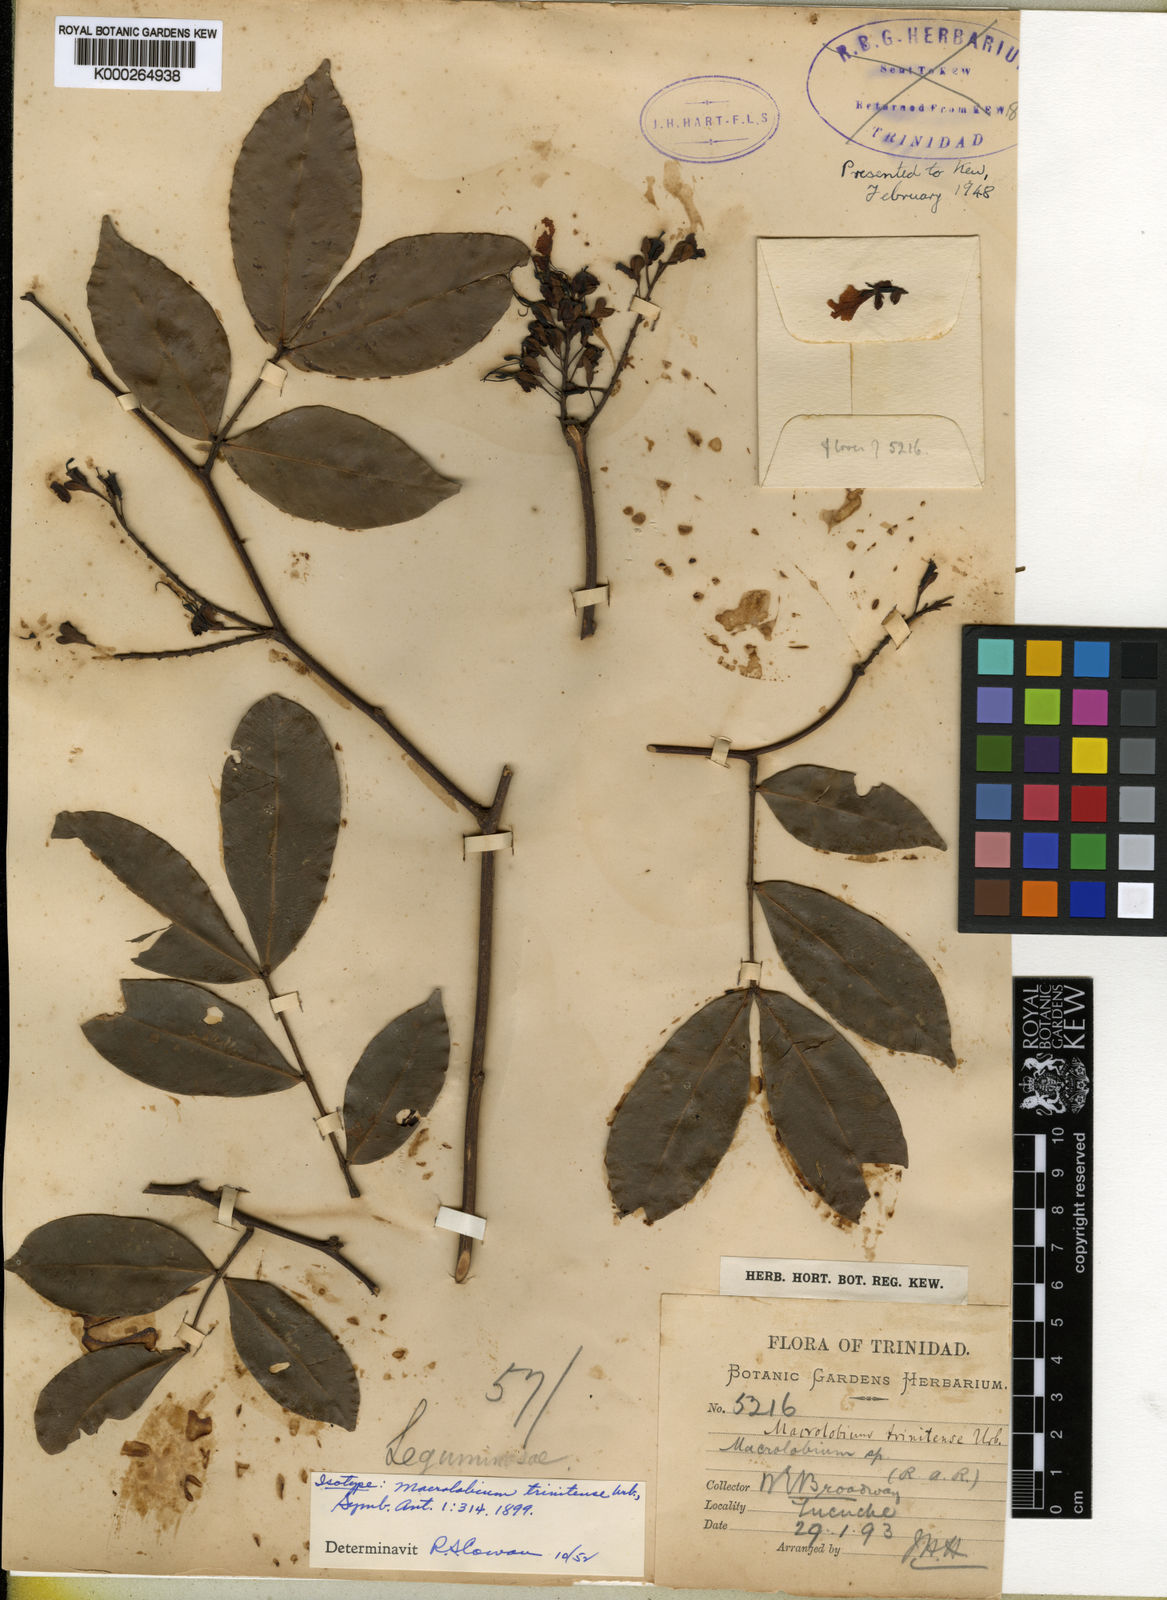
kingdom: Plantae
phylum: Tracheophyta
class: Magnoliopsida
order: Fabales
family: Fabaceae
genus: Macrolobium
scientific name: Macrolobium trinitense
